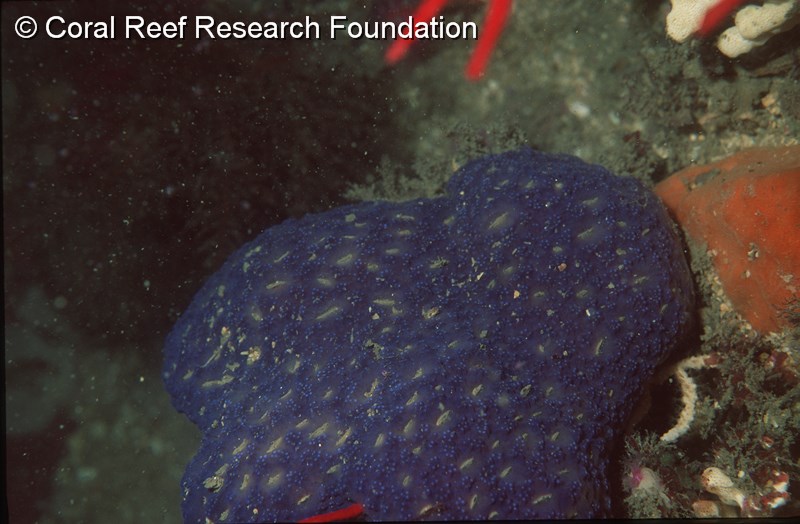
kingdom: Animalia
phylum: Chordata
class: Ascidiacea
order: Aplousobranchia
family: Holozoidae
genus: Distaplia
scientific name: Distaplia skoogi
